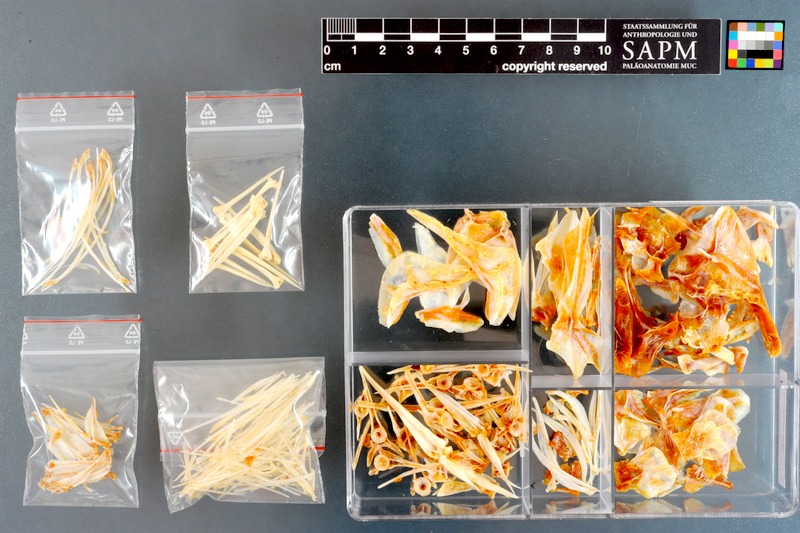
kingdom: Animalia
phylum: Chordata
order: Perciformes
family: Sparidae
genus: Pterogymnus
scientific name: Pterogymnus laniarius
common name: Panga
